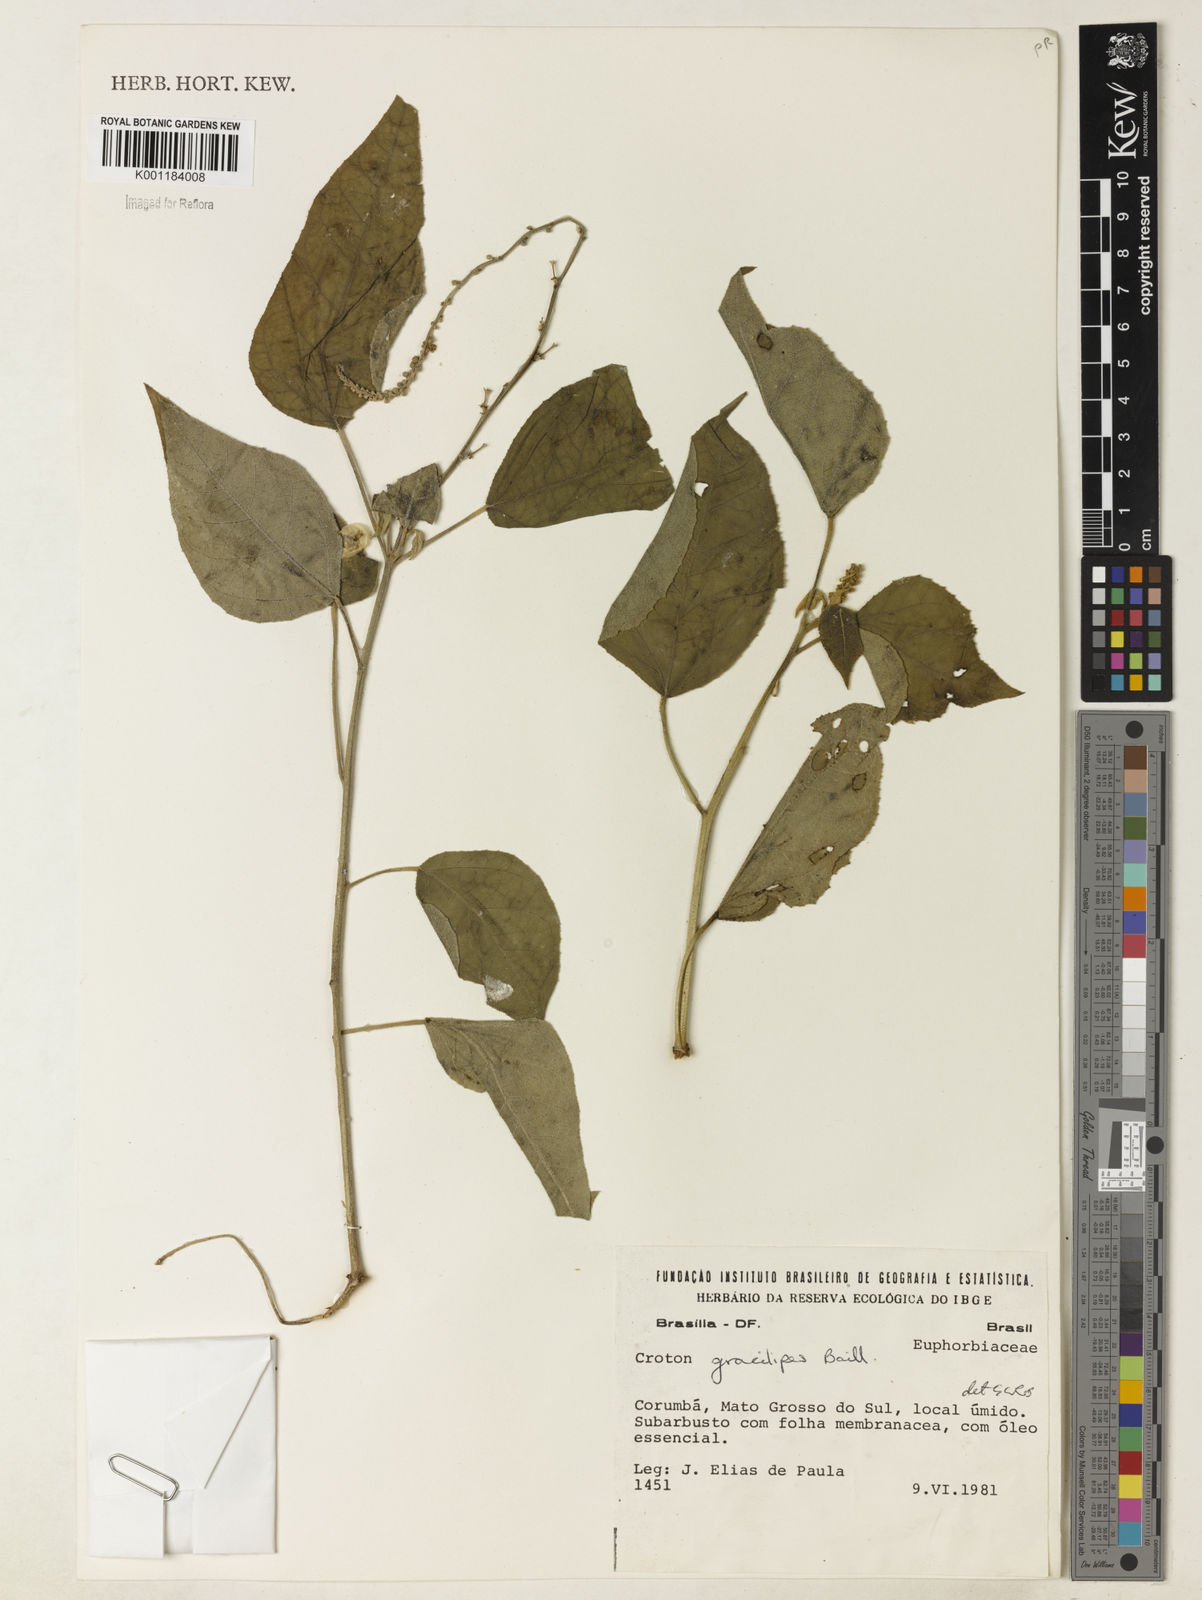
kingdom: Plantae
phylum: Tracheophyta
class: Magnoliopsida
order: Malpighiales
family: Euphorbiaceae
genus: Croton
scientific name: Croton gracilipes
